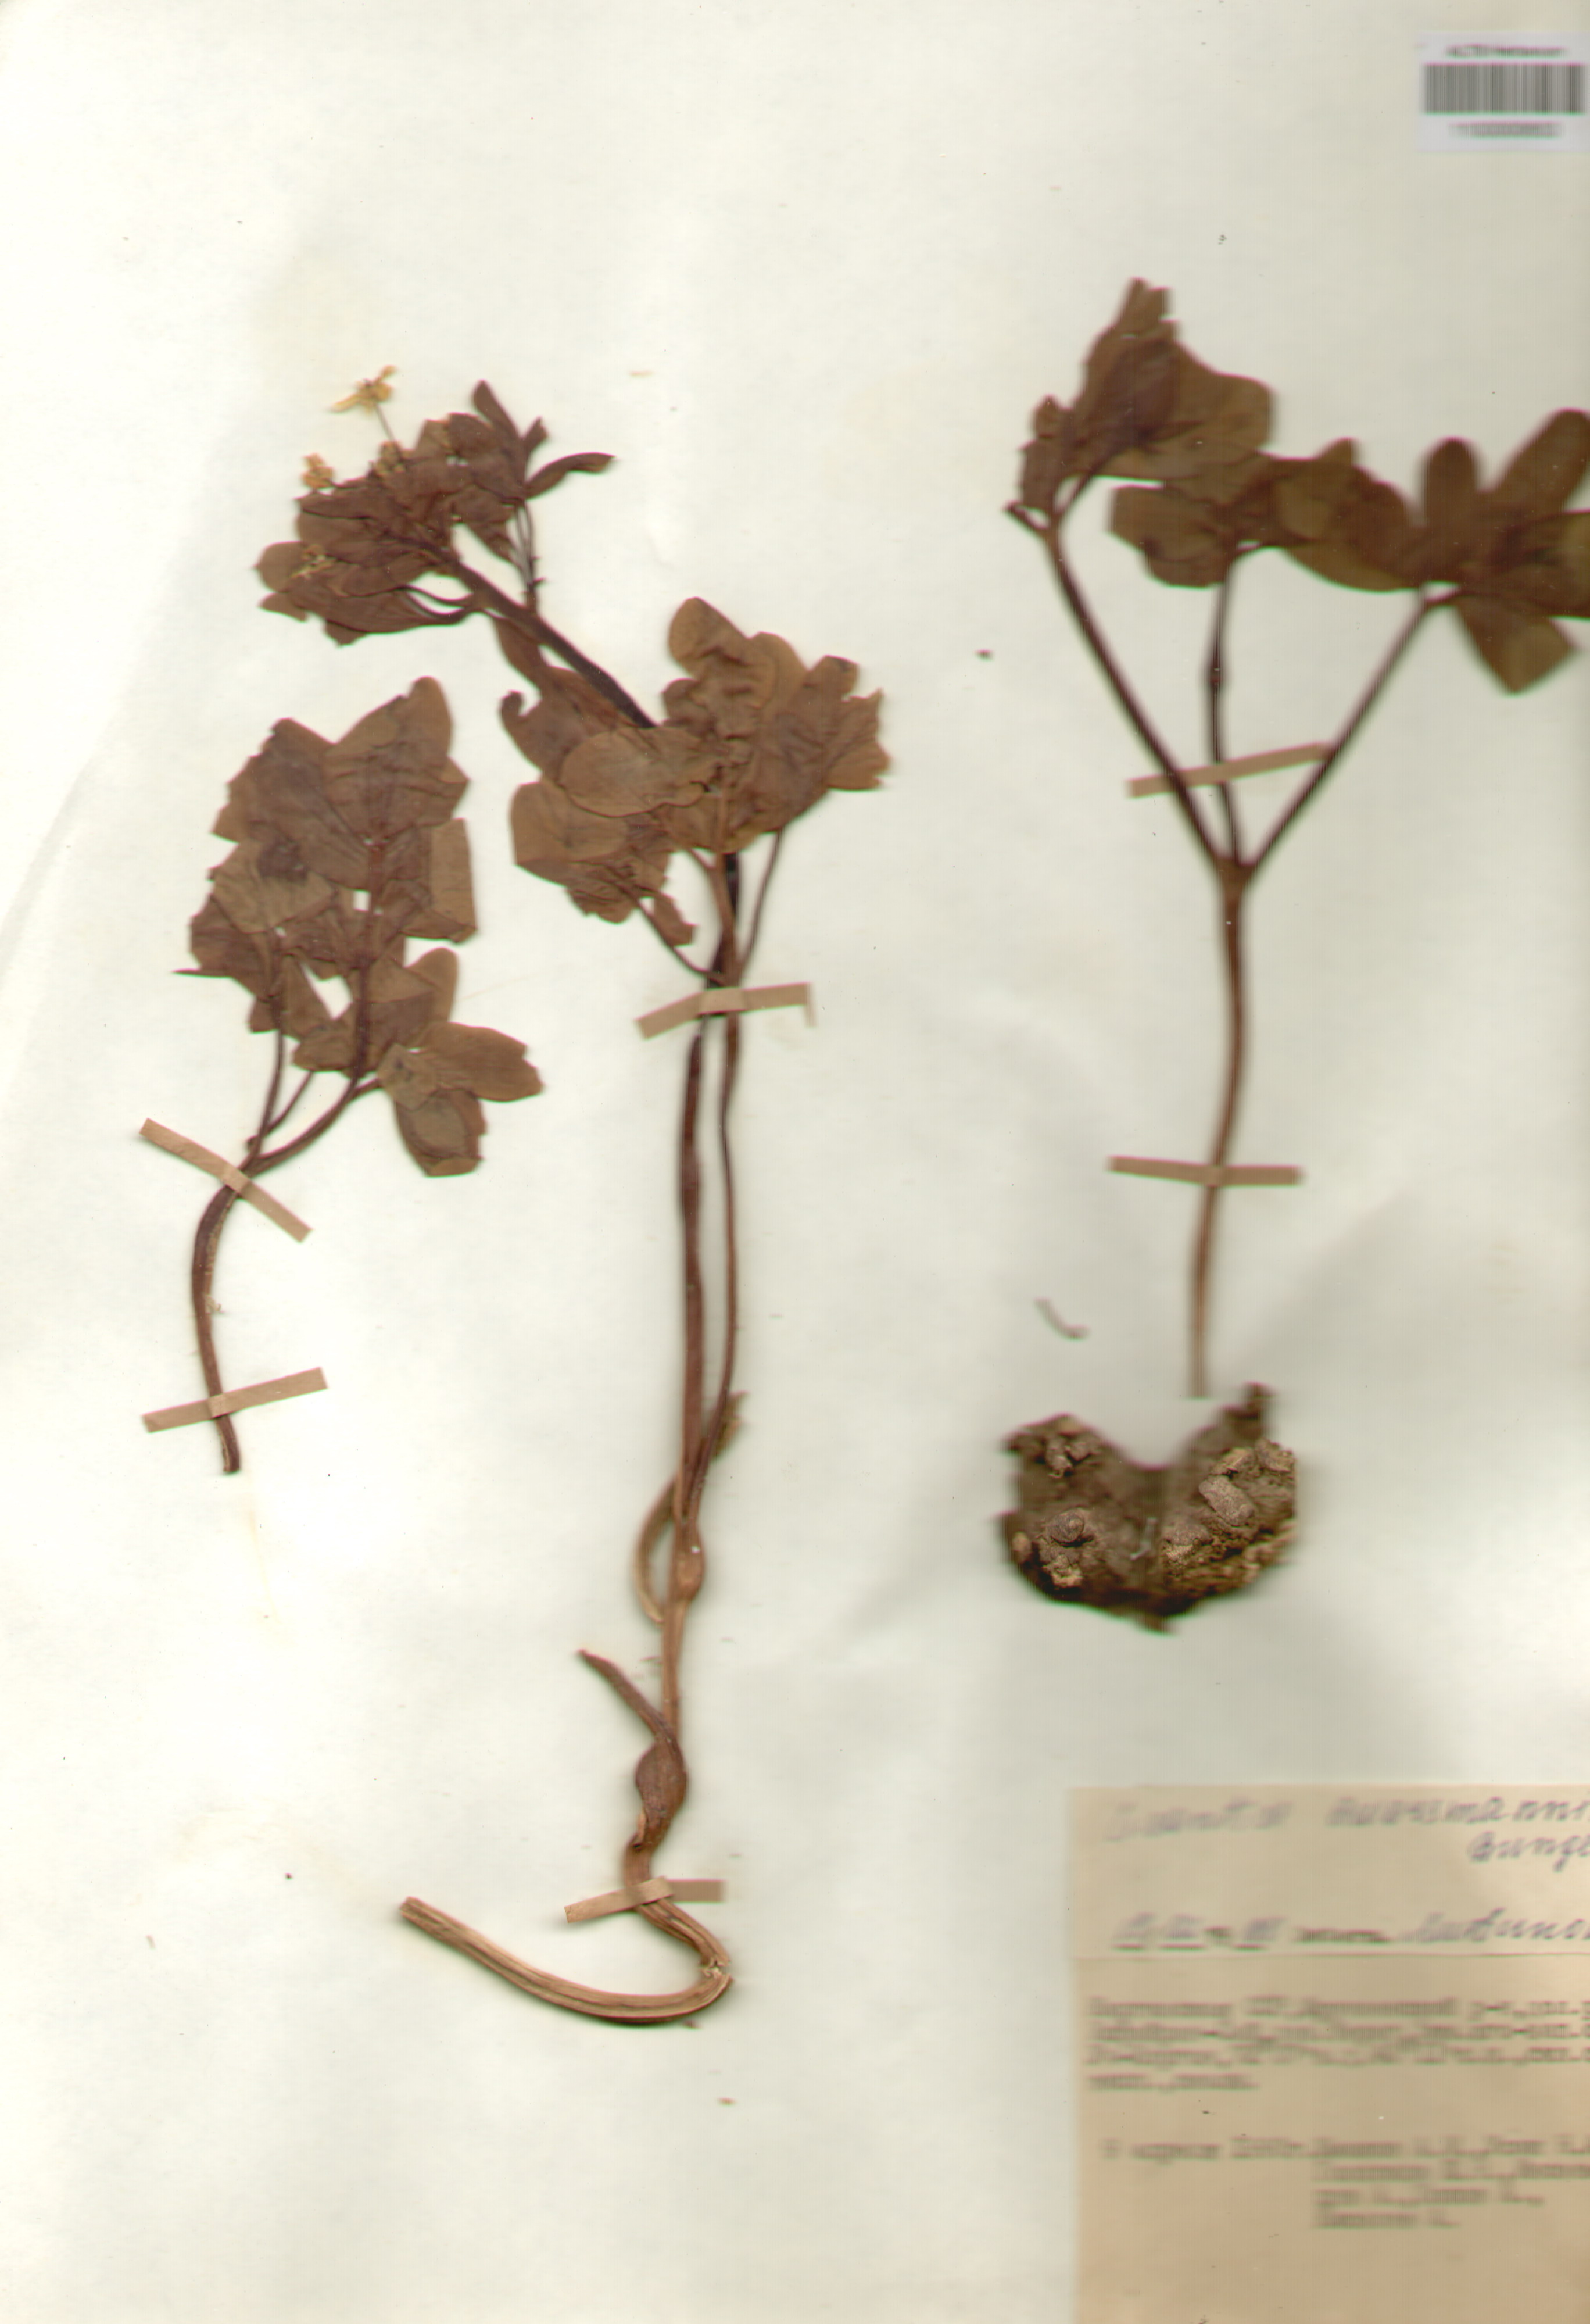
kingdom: Plantae
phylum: Tracheophyta
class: Magnoliopsida
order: Ranunculales
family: Berberidaceae
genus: Leontice
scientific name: Leontice leontopetalum
